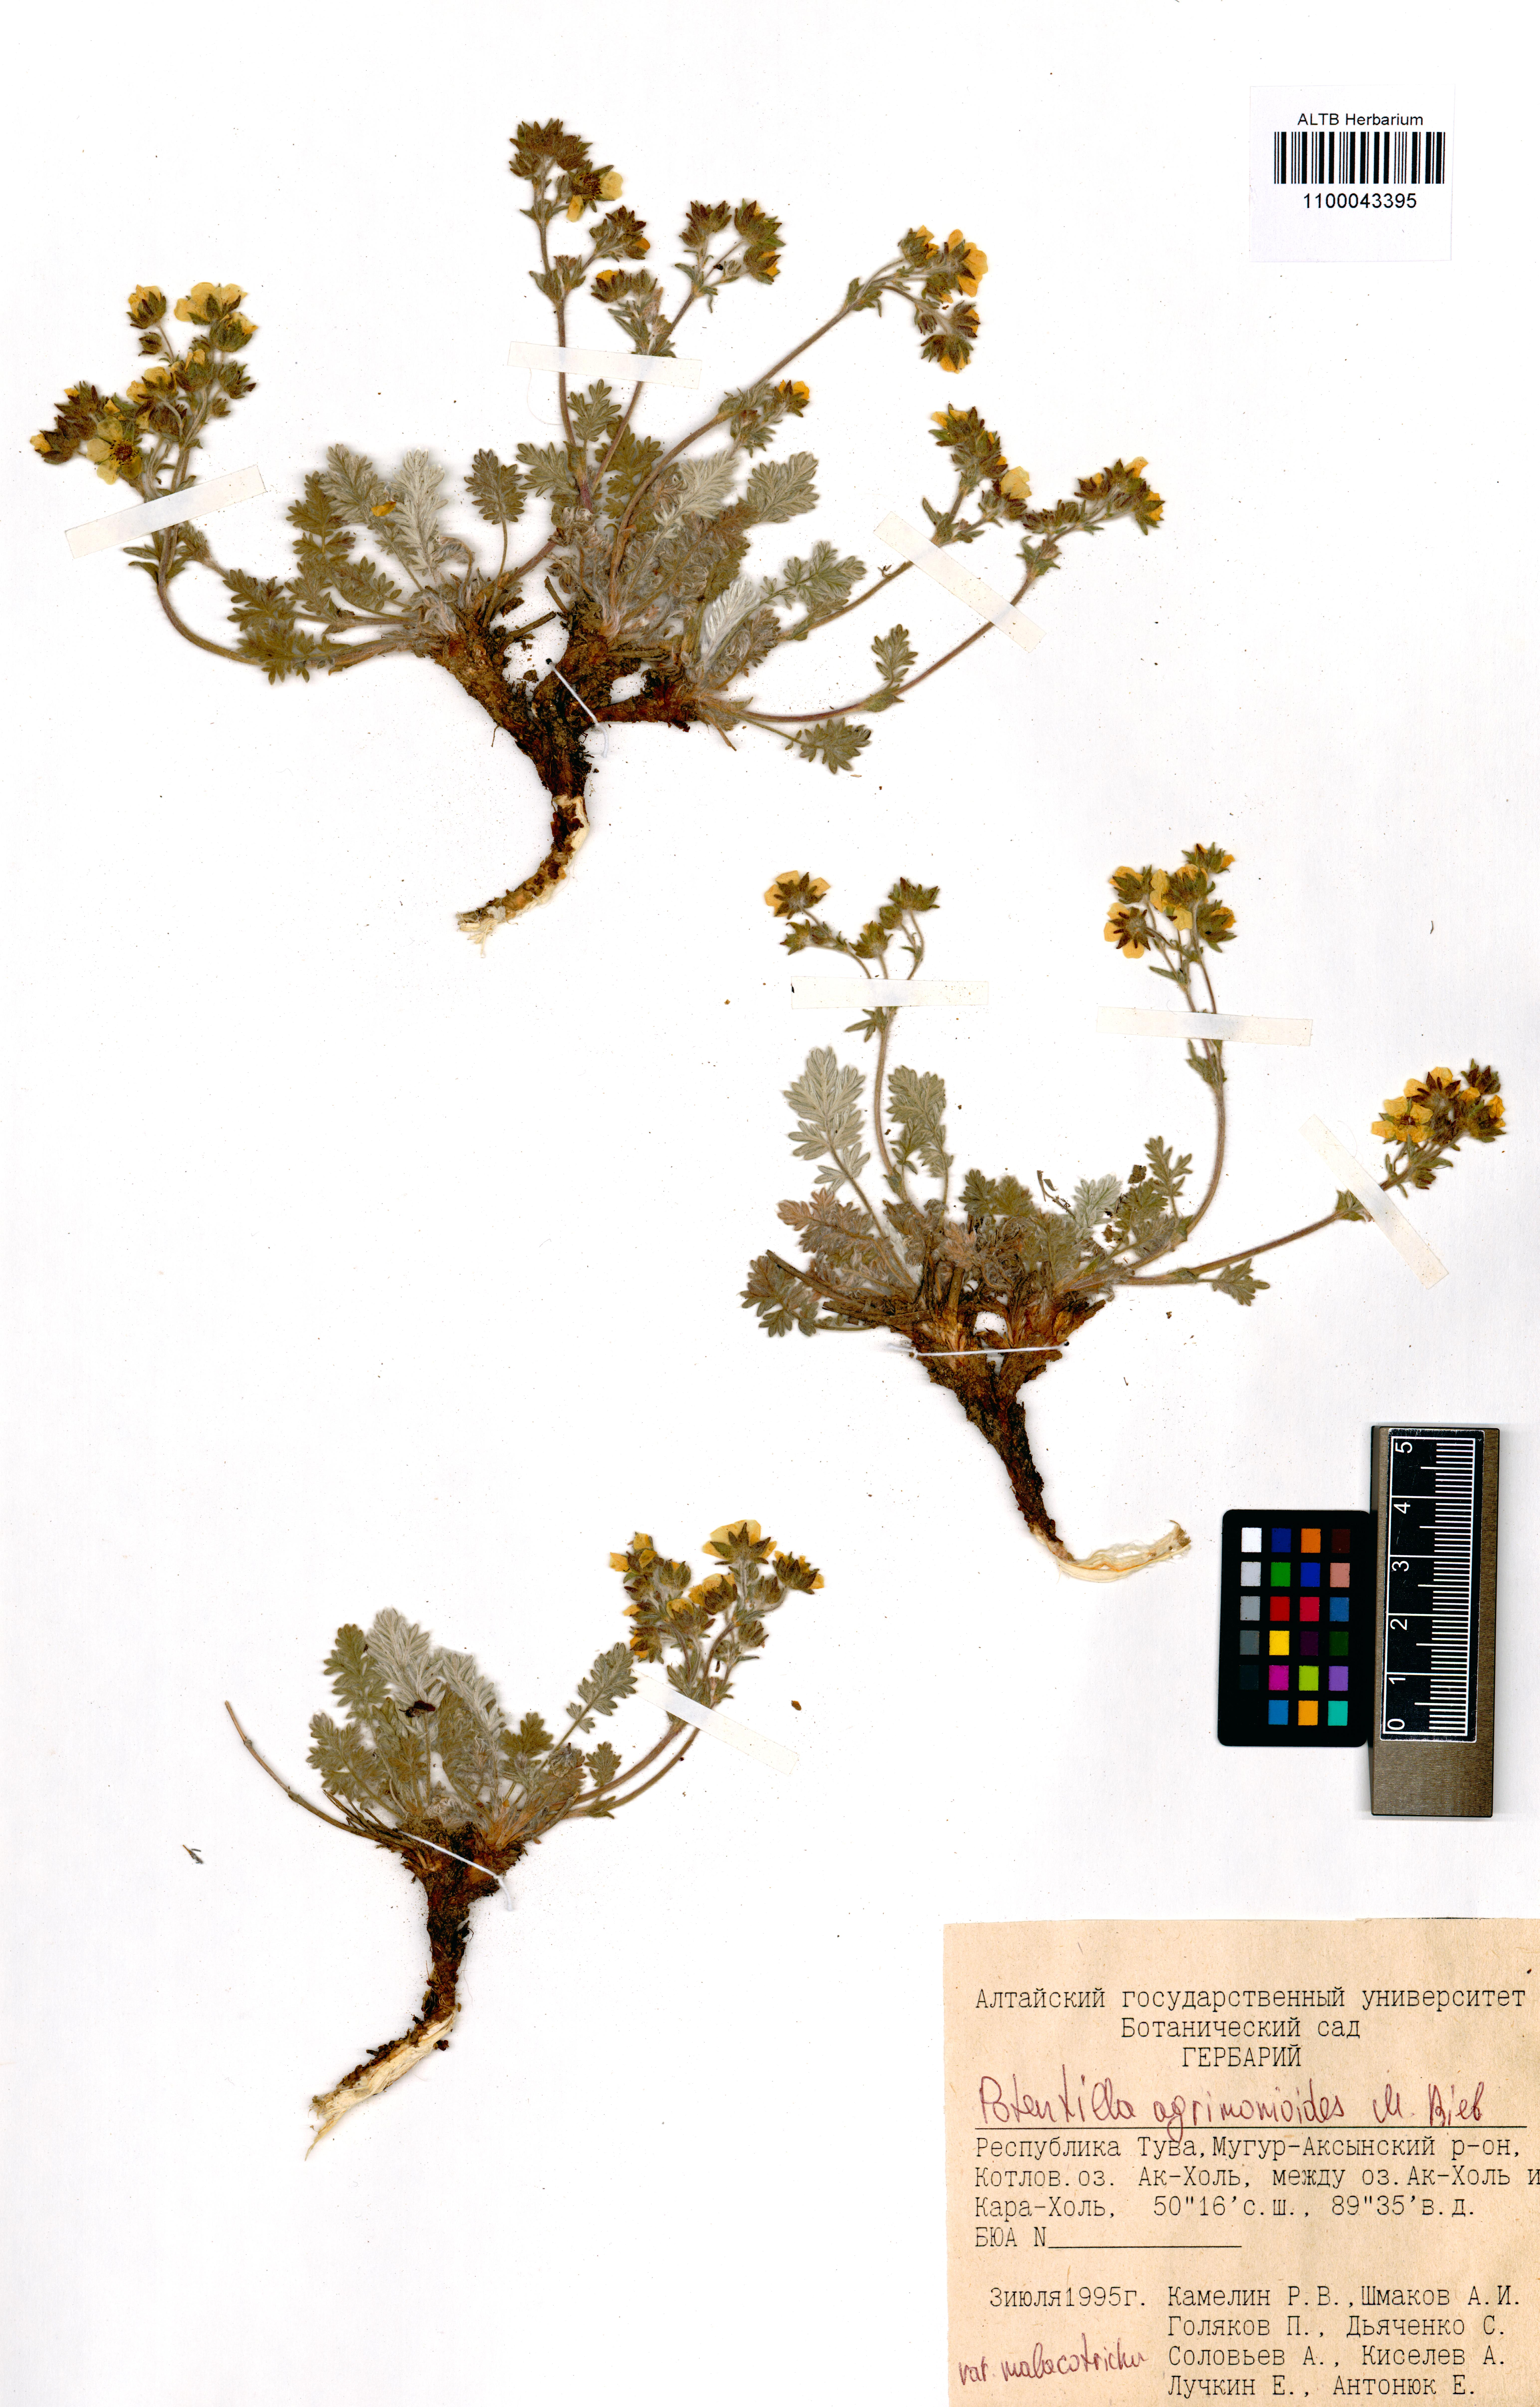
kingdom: Plantae
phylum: Tracheophyta
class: Magnoliopsida
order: Rosales
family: Rosaceae
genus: Potentilla
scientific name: Potentilla agrimonioides
